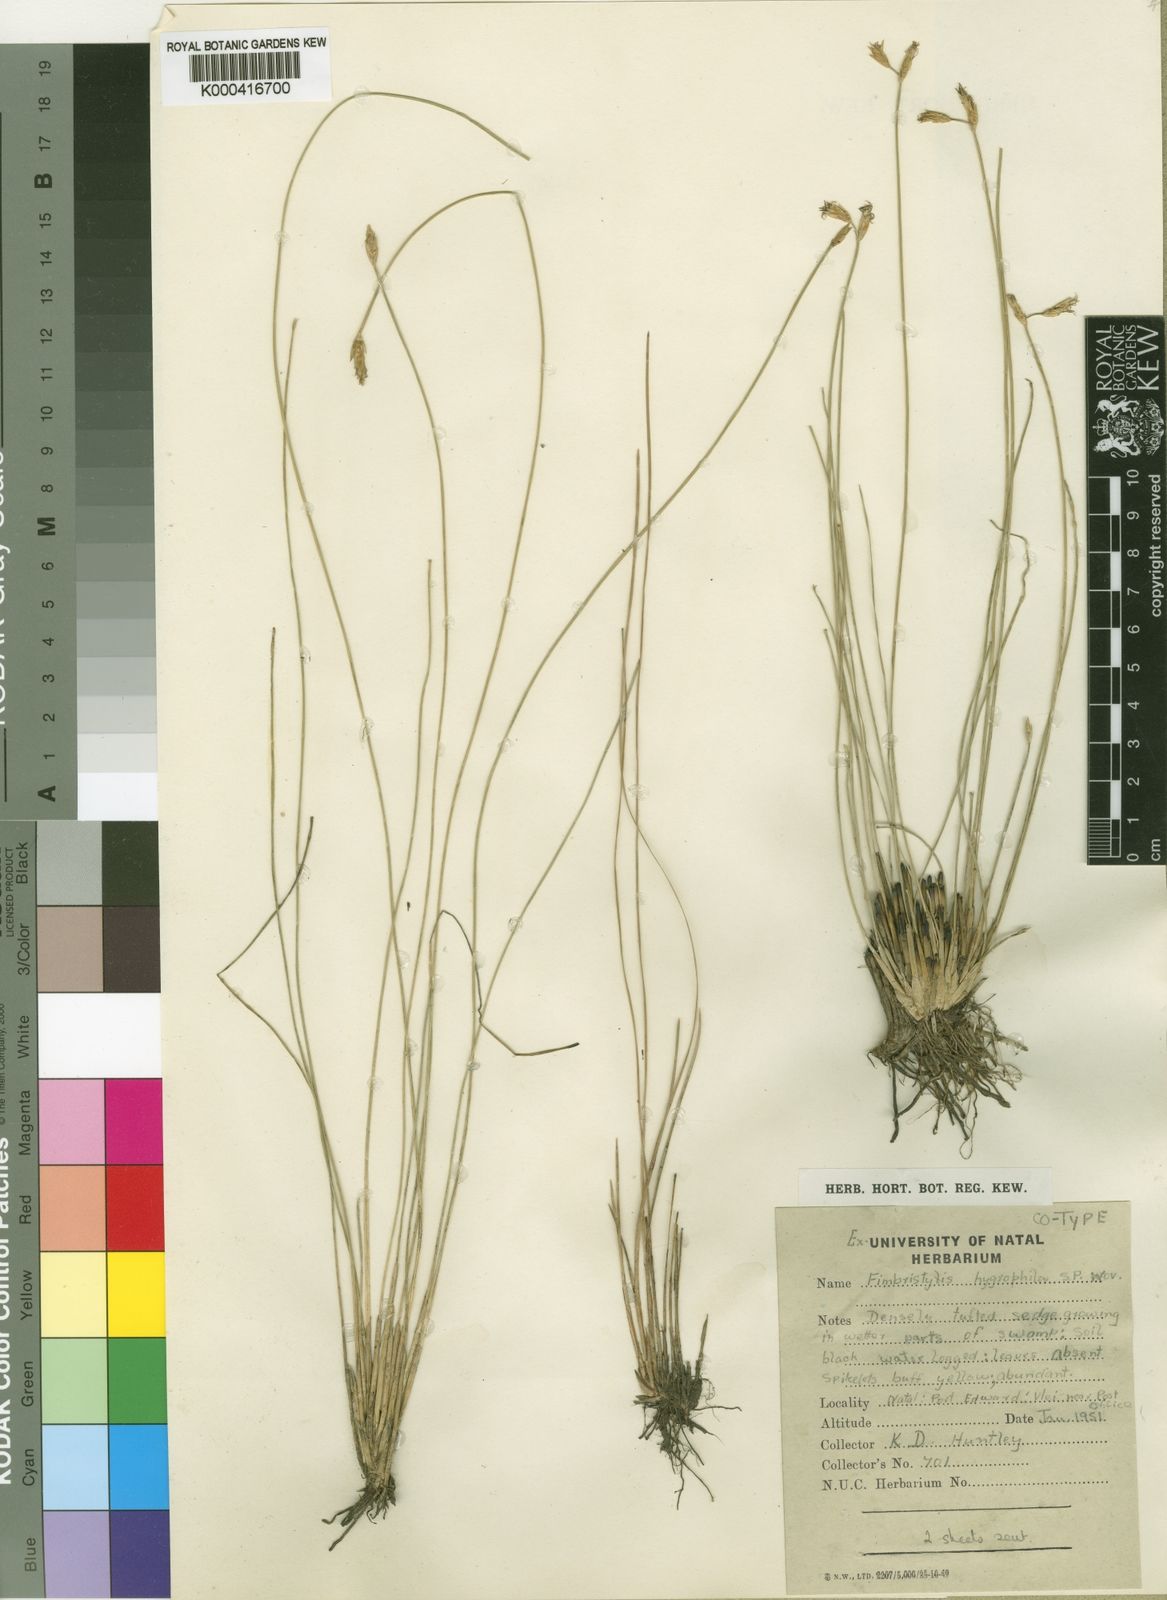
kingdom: Plantae
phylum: Tracheophyta
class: Liliopsida
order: Poales
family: Cyperaceae
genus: Fimbristylis
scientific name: Fimbristylis
